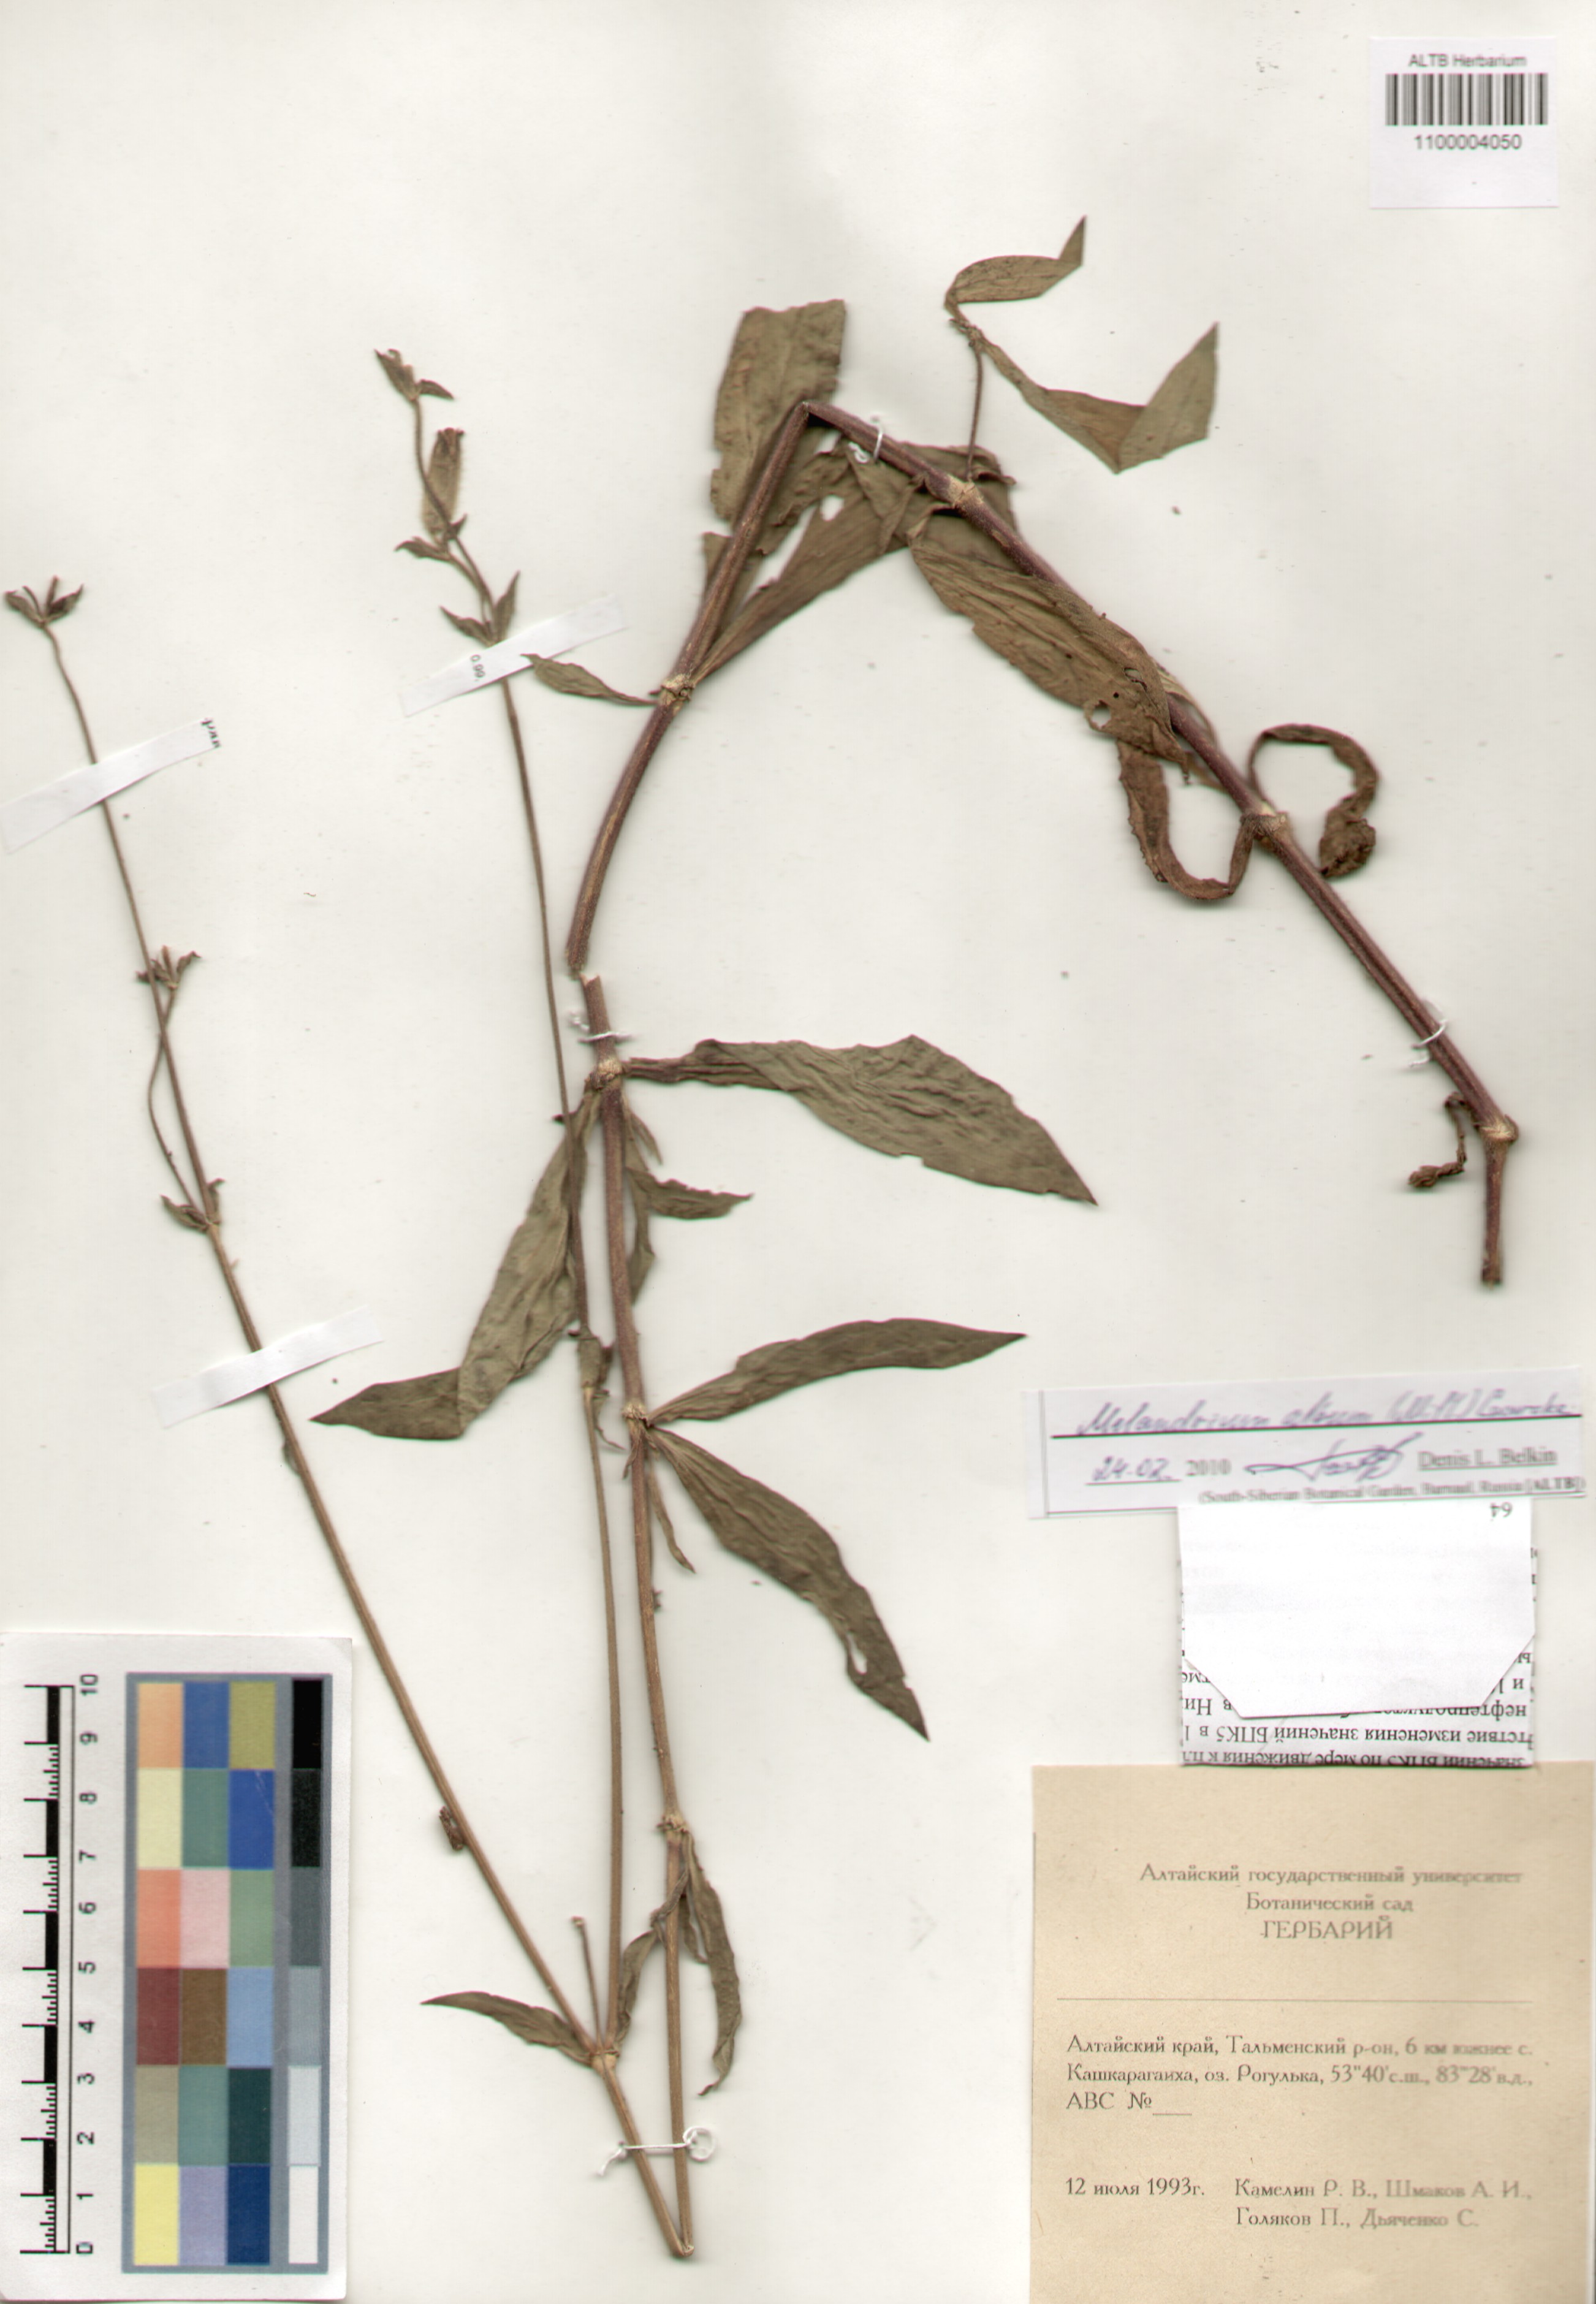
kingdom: Plantae
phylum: Tracheophyta
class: Magnoliopsida
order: Caryophyllales
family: Caryophyllaceae
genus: Silene
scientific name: Silene latifolia
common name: White campion
